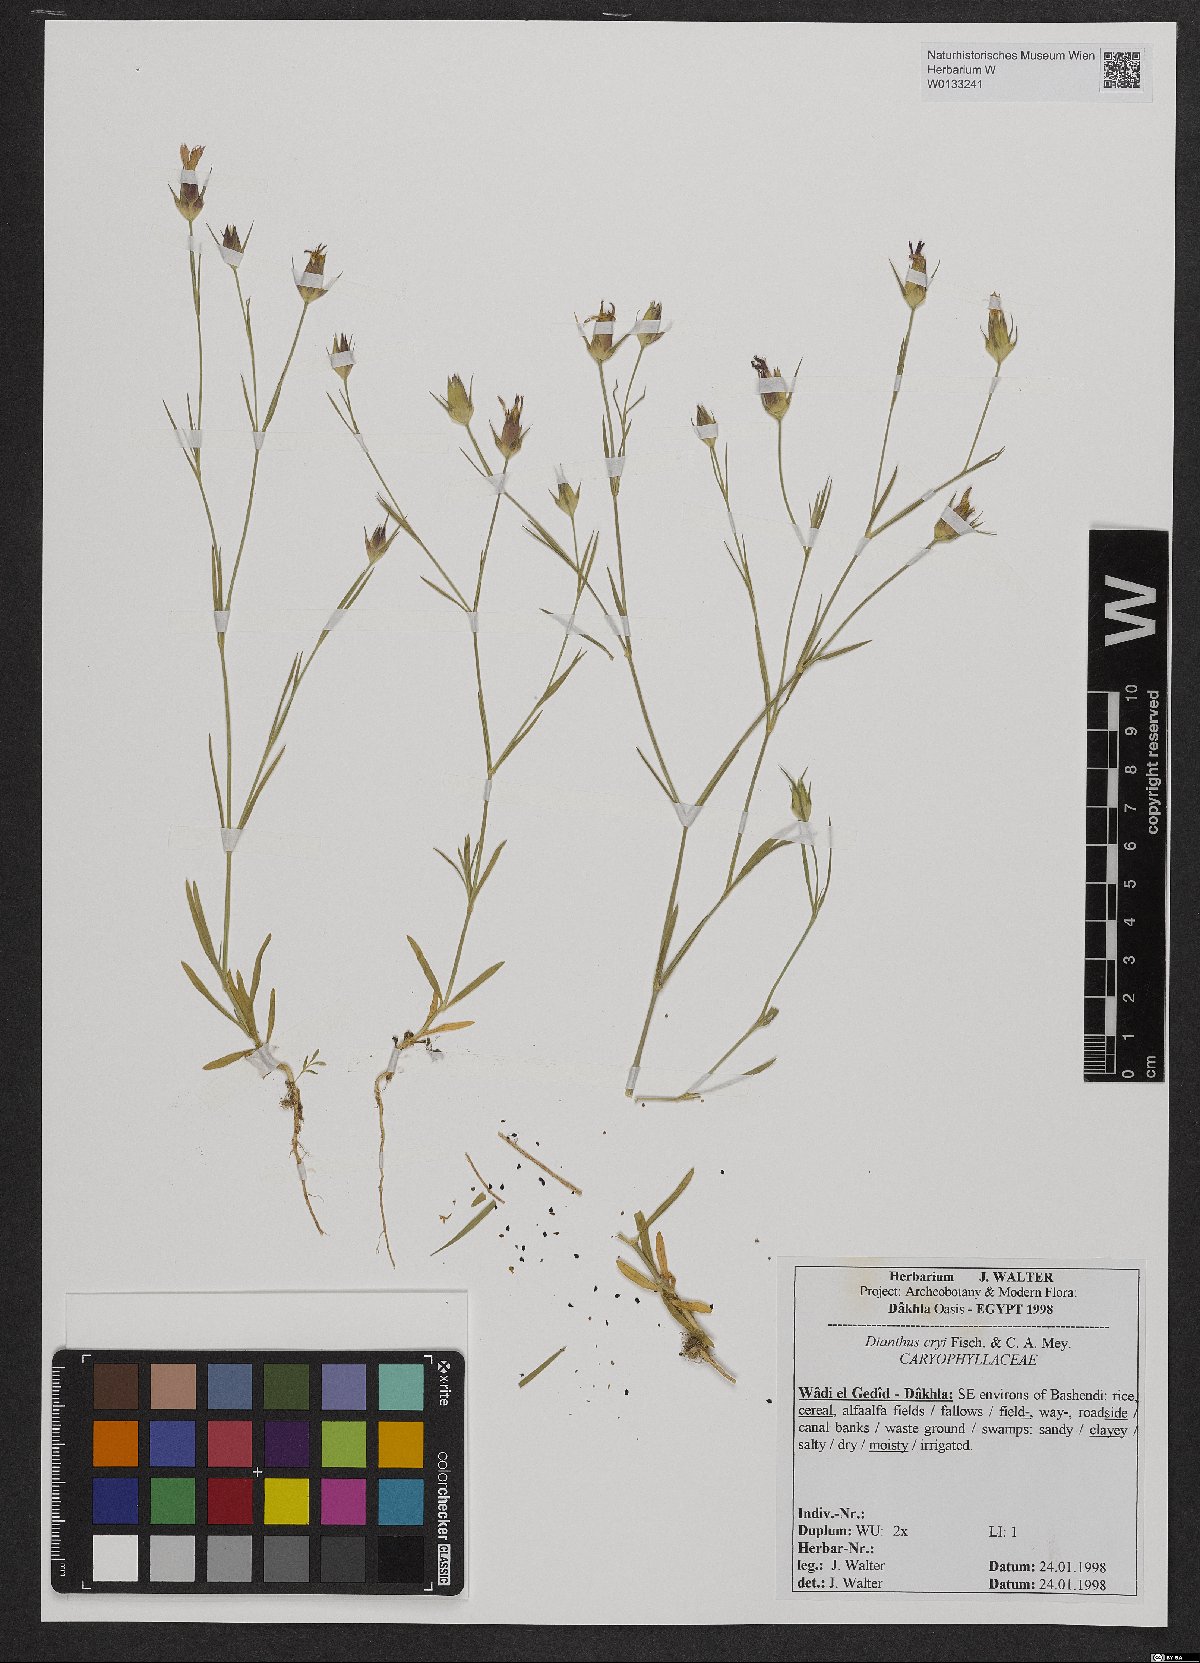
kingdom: Plantae
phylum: Tracheophyta
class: Magnoliopsida
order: Caryophyllales
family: Caryophyllaceae
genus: Dianthus
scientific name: Dianthus cyri
